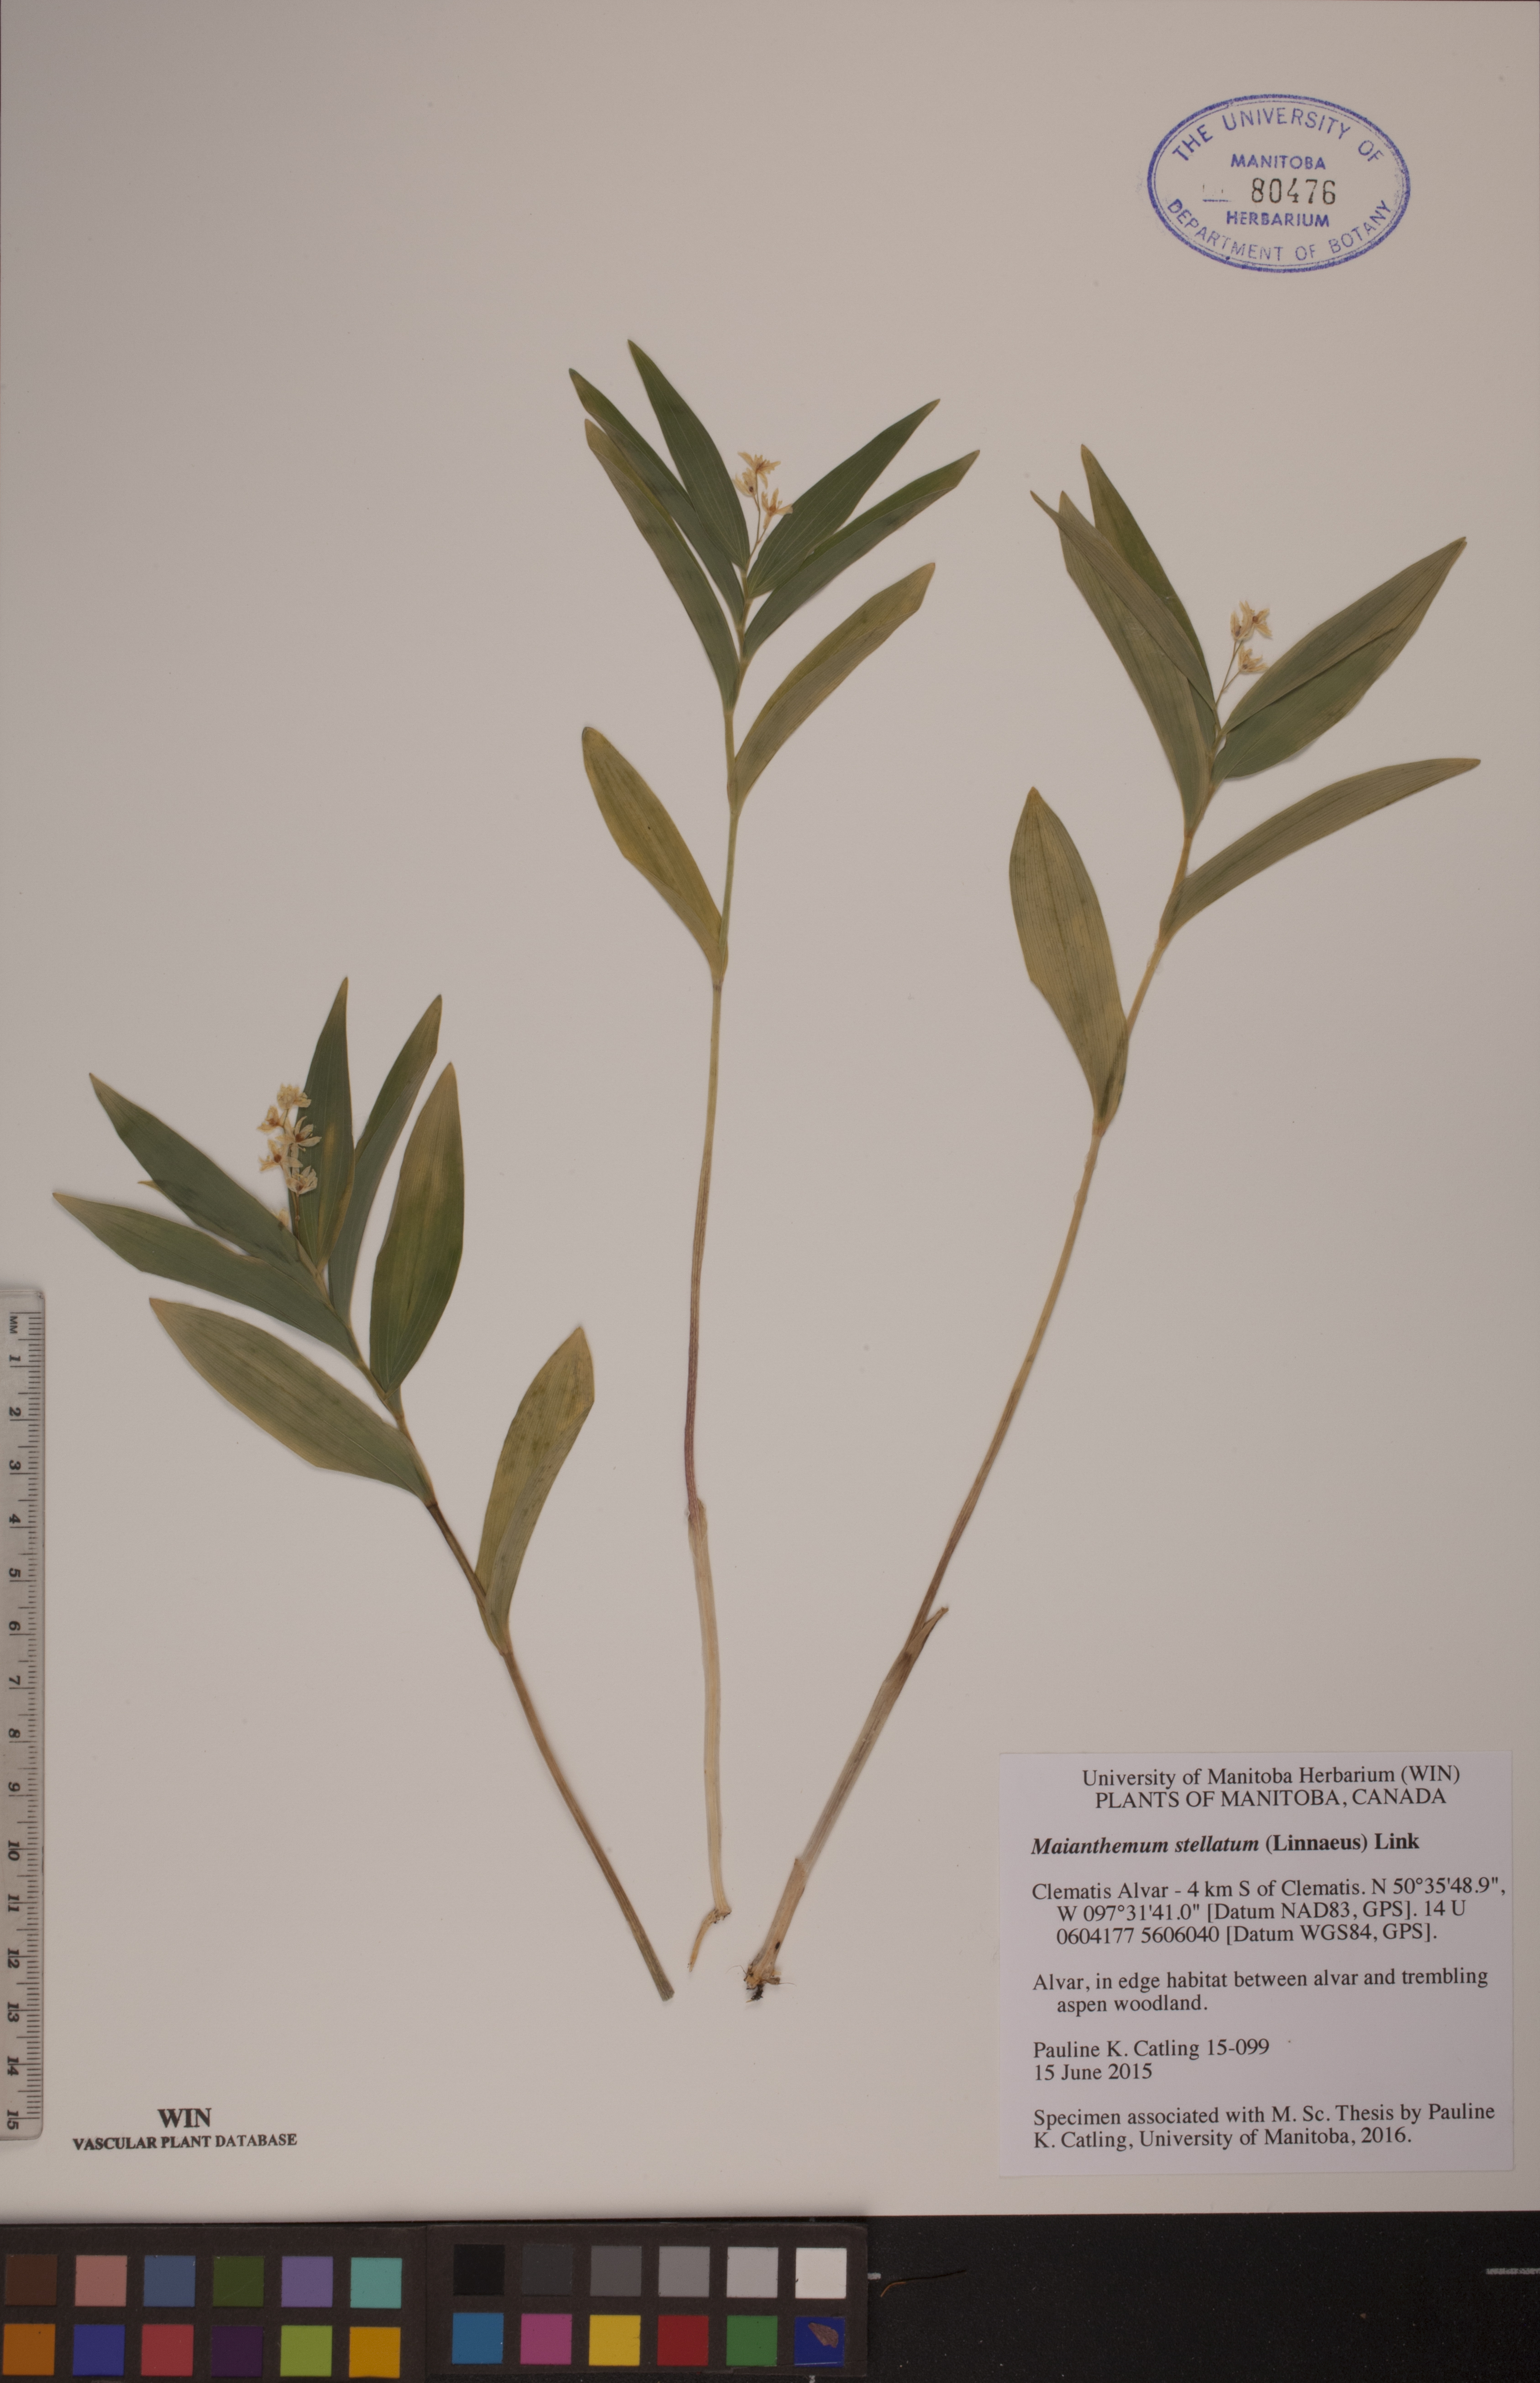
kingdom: Plantae
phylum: Tracheophyta
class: Liliopsida
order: Asparagales
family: Asparagaceae
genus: Maianthemum
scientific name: Maianthemum stellatum
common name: Little false solomon's seal
